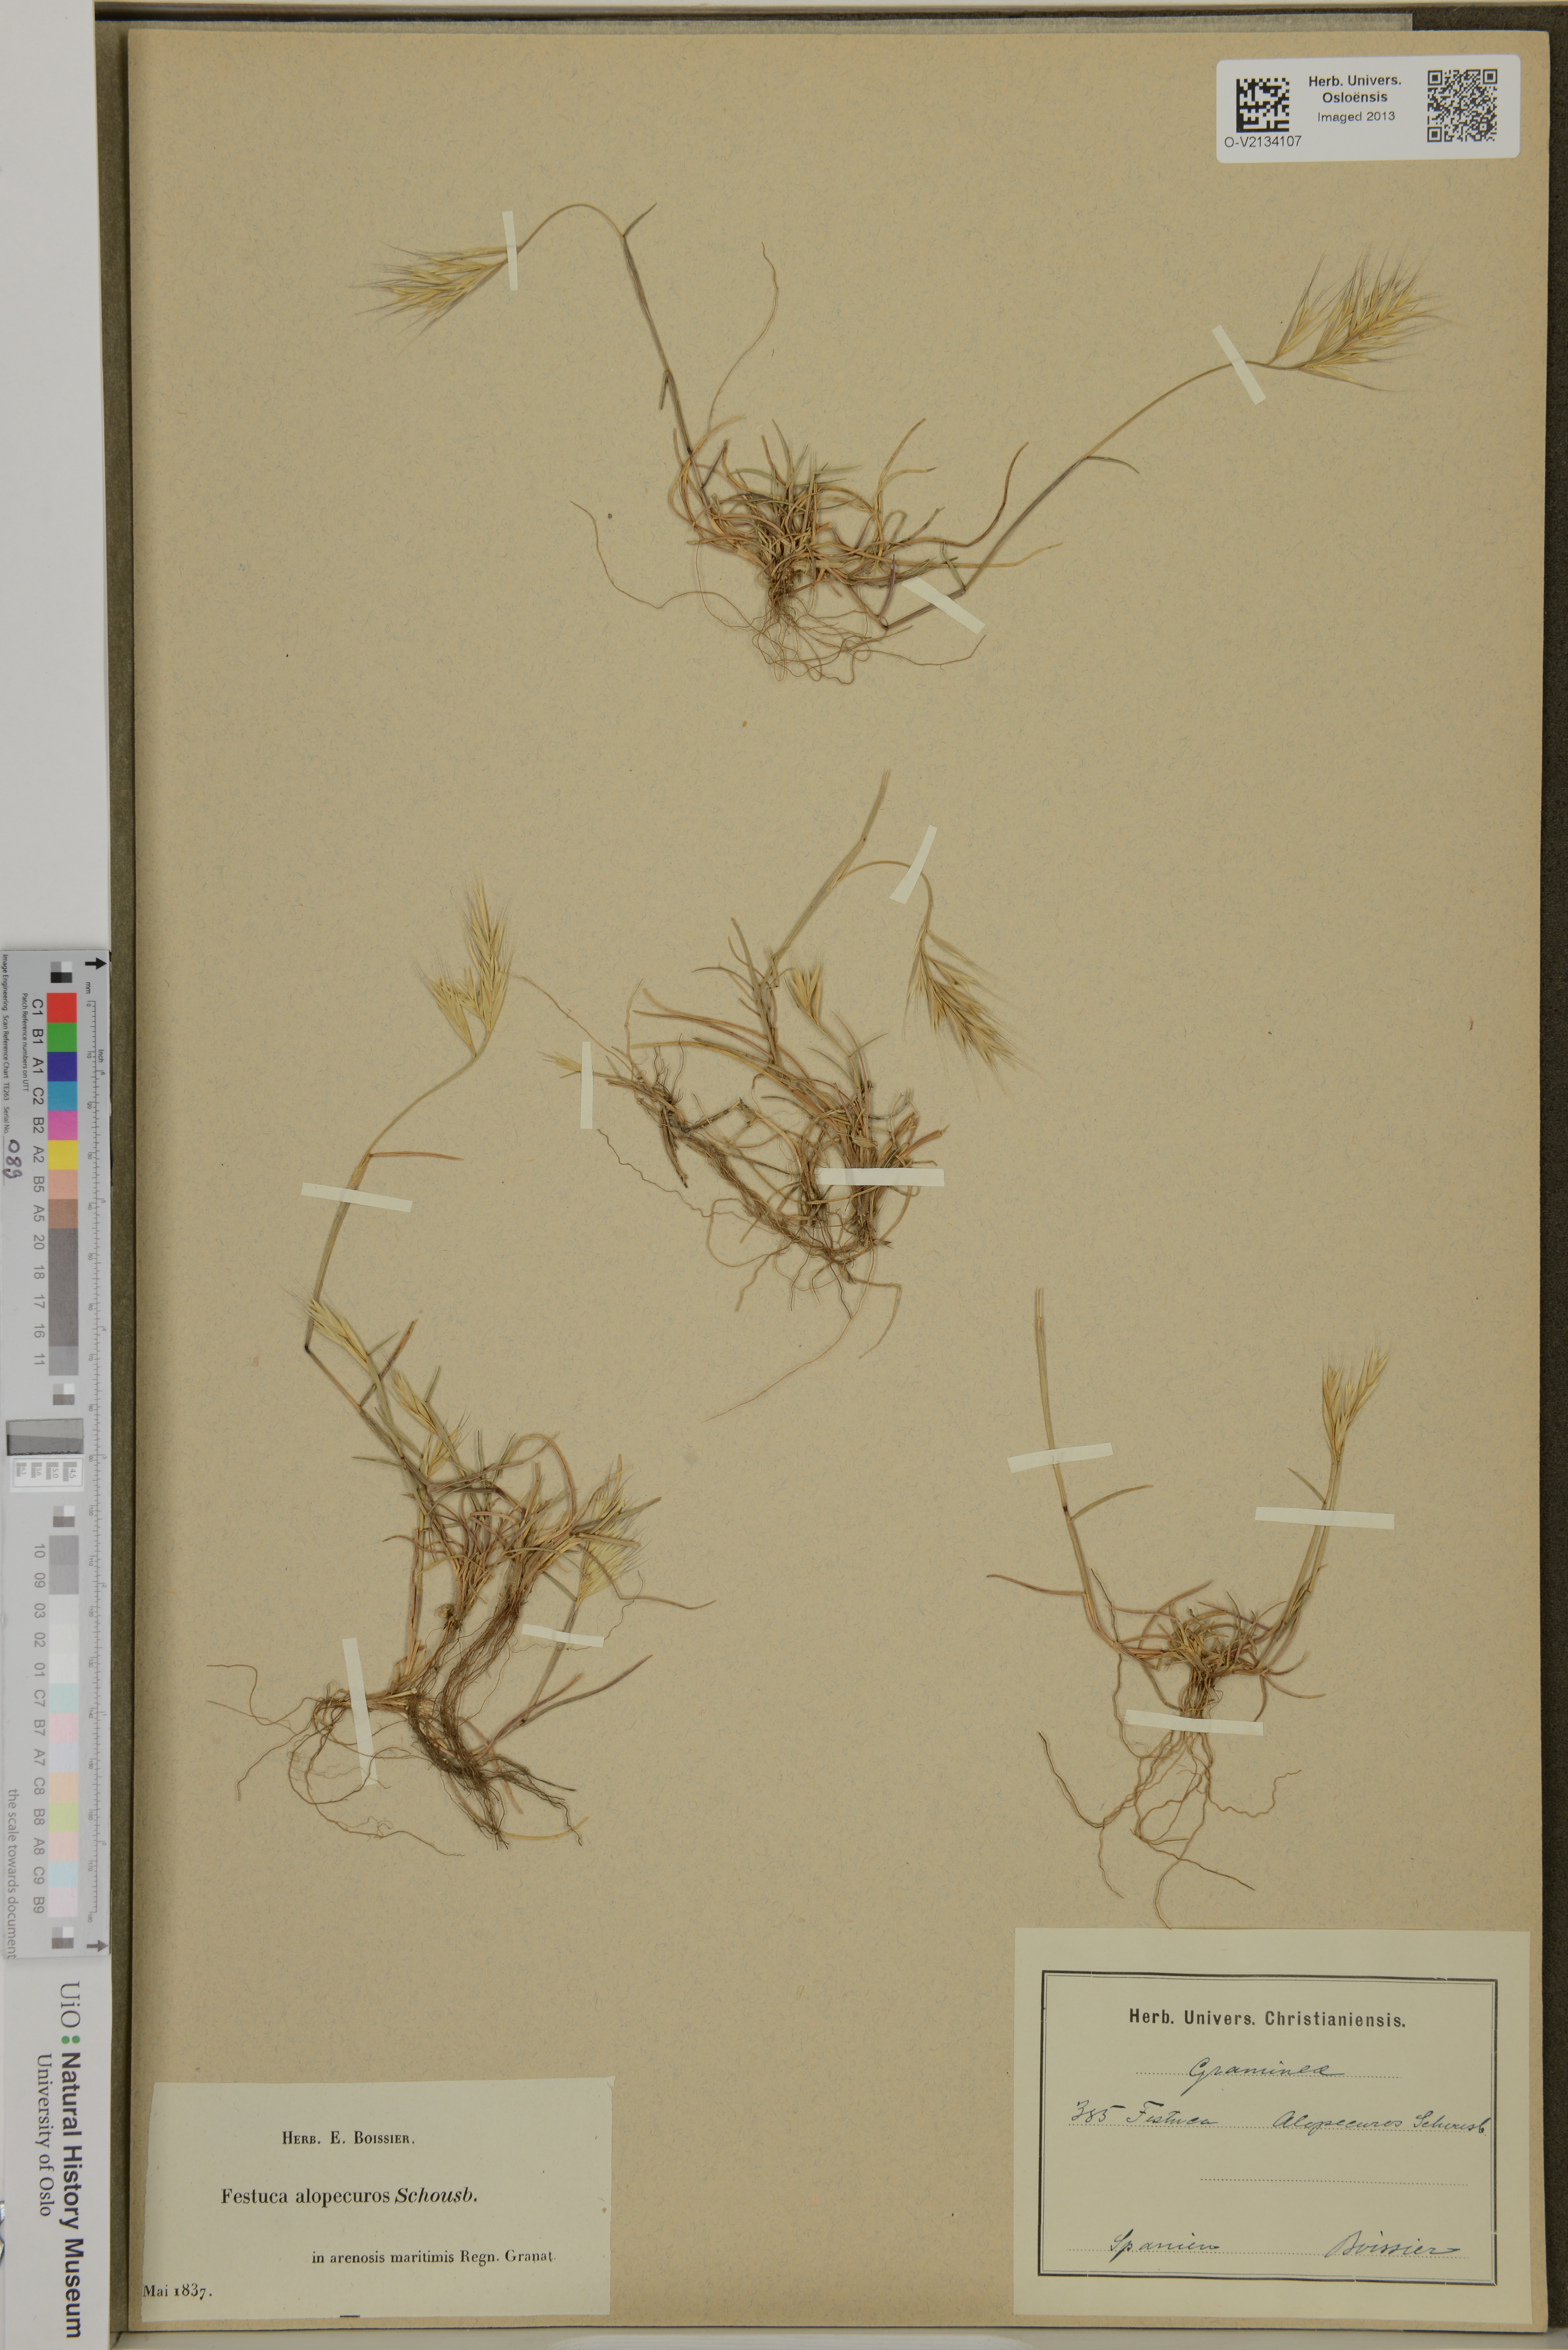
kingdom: Plantae
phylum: Tracheophyta
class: Liliopsida
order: Poales
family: Poaceae
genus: Festuca
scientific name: Festuca alopecuros
